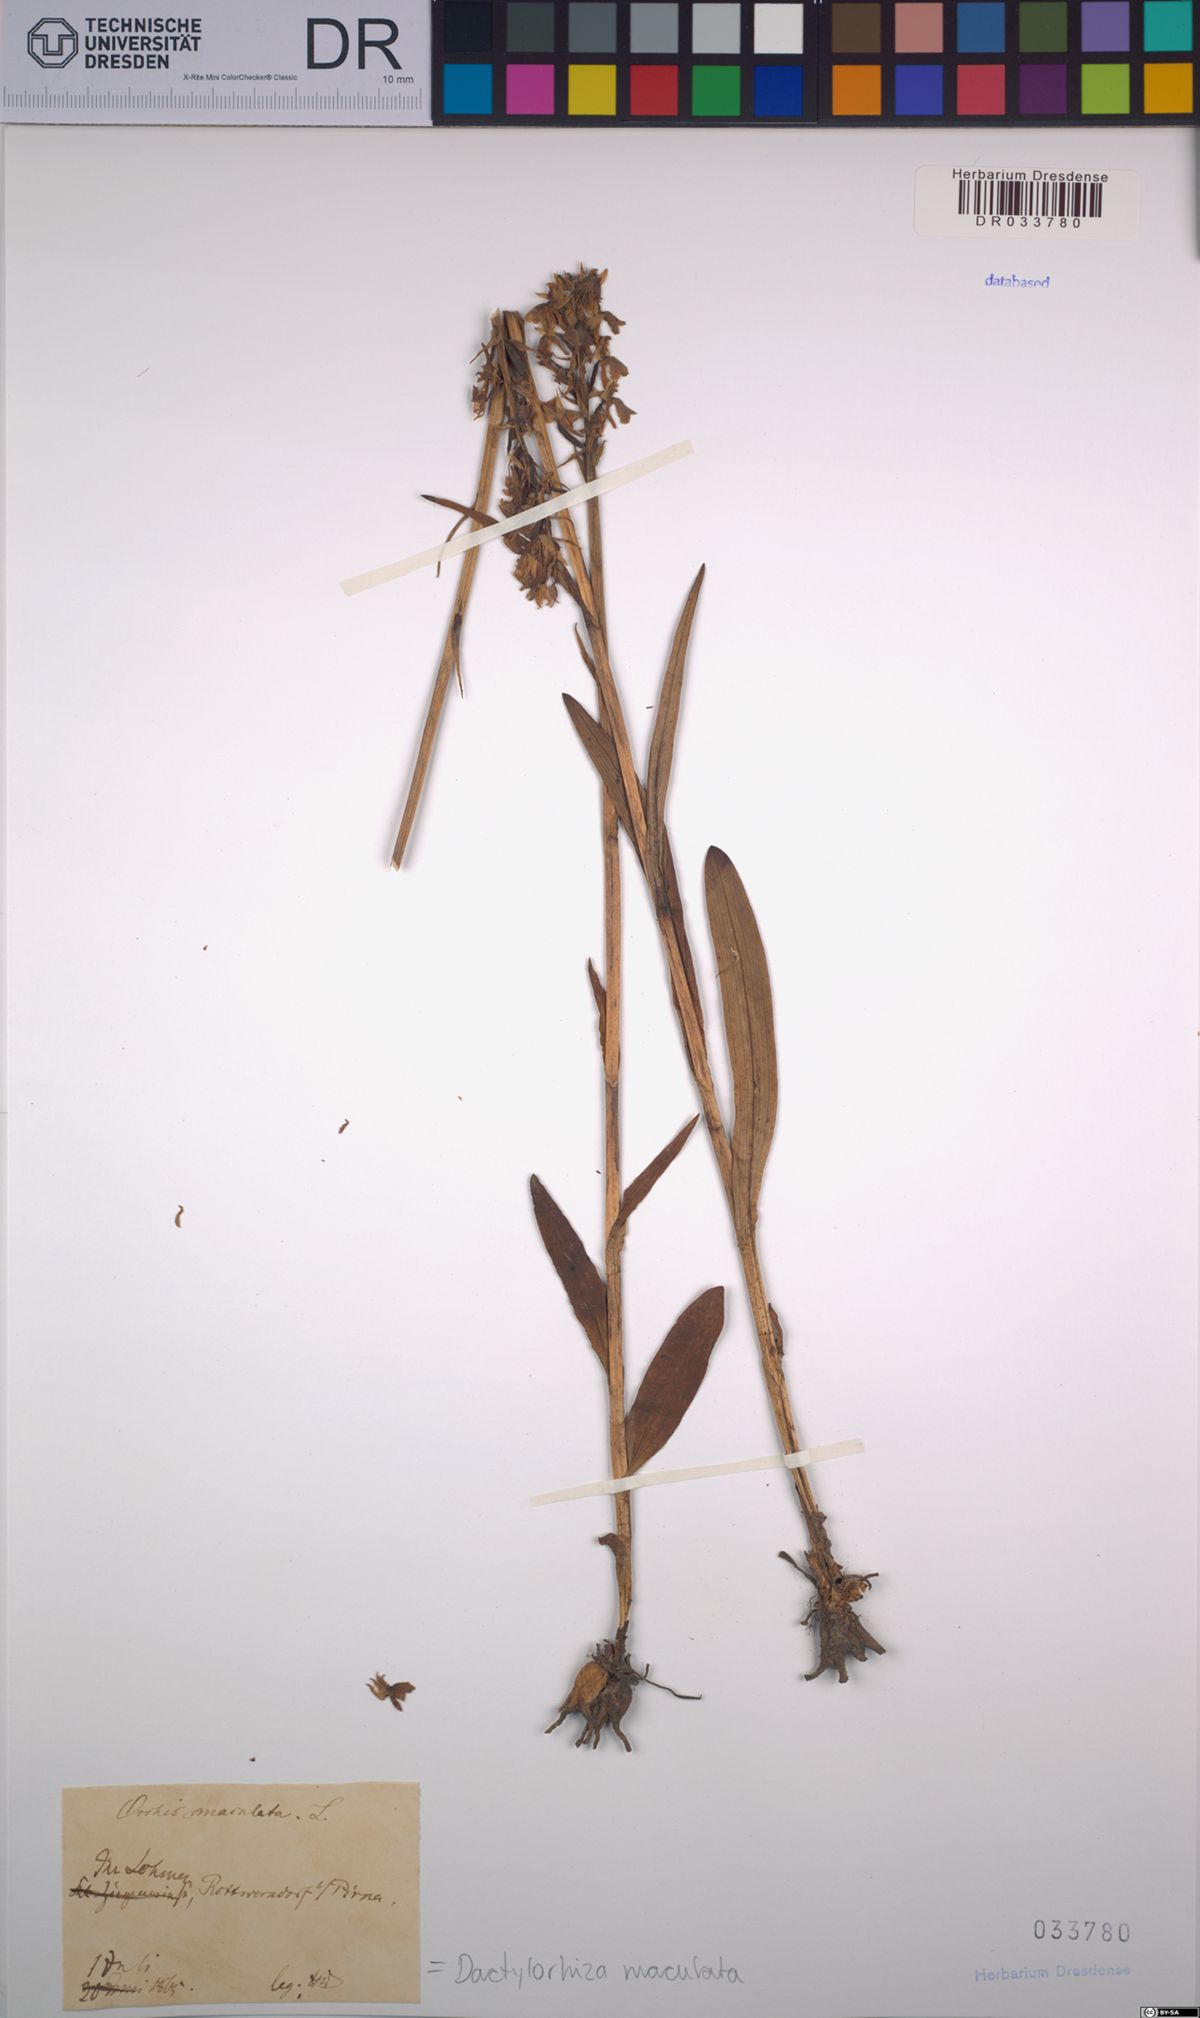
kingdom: Plantae
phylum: Tracheophyta
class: Liliopsida
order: Asparagales
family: Orchidaceae
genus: Dactylorhiza
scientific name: Dactylorhiza maculata
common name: Heath spotted-orchid
